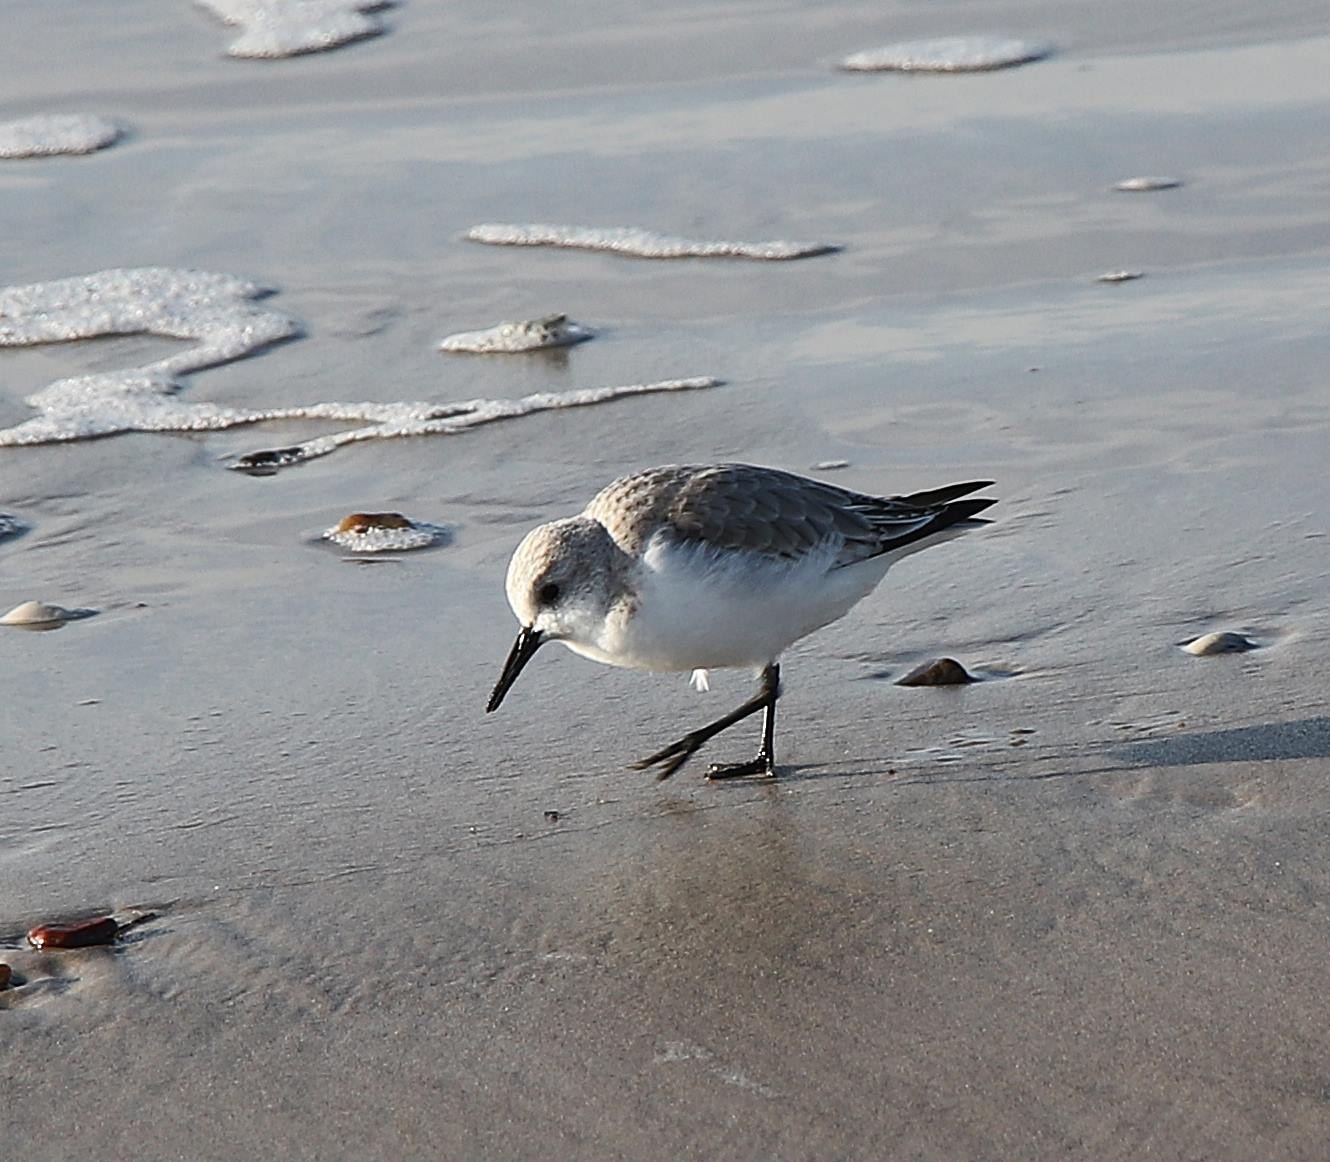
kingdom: Animalia
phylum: Chordata
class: Aves
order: Charadriiformes
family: Scolopacidae
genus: Calidris
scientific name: Calidris alba
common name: Sandløber
